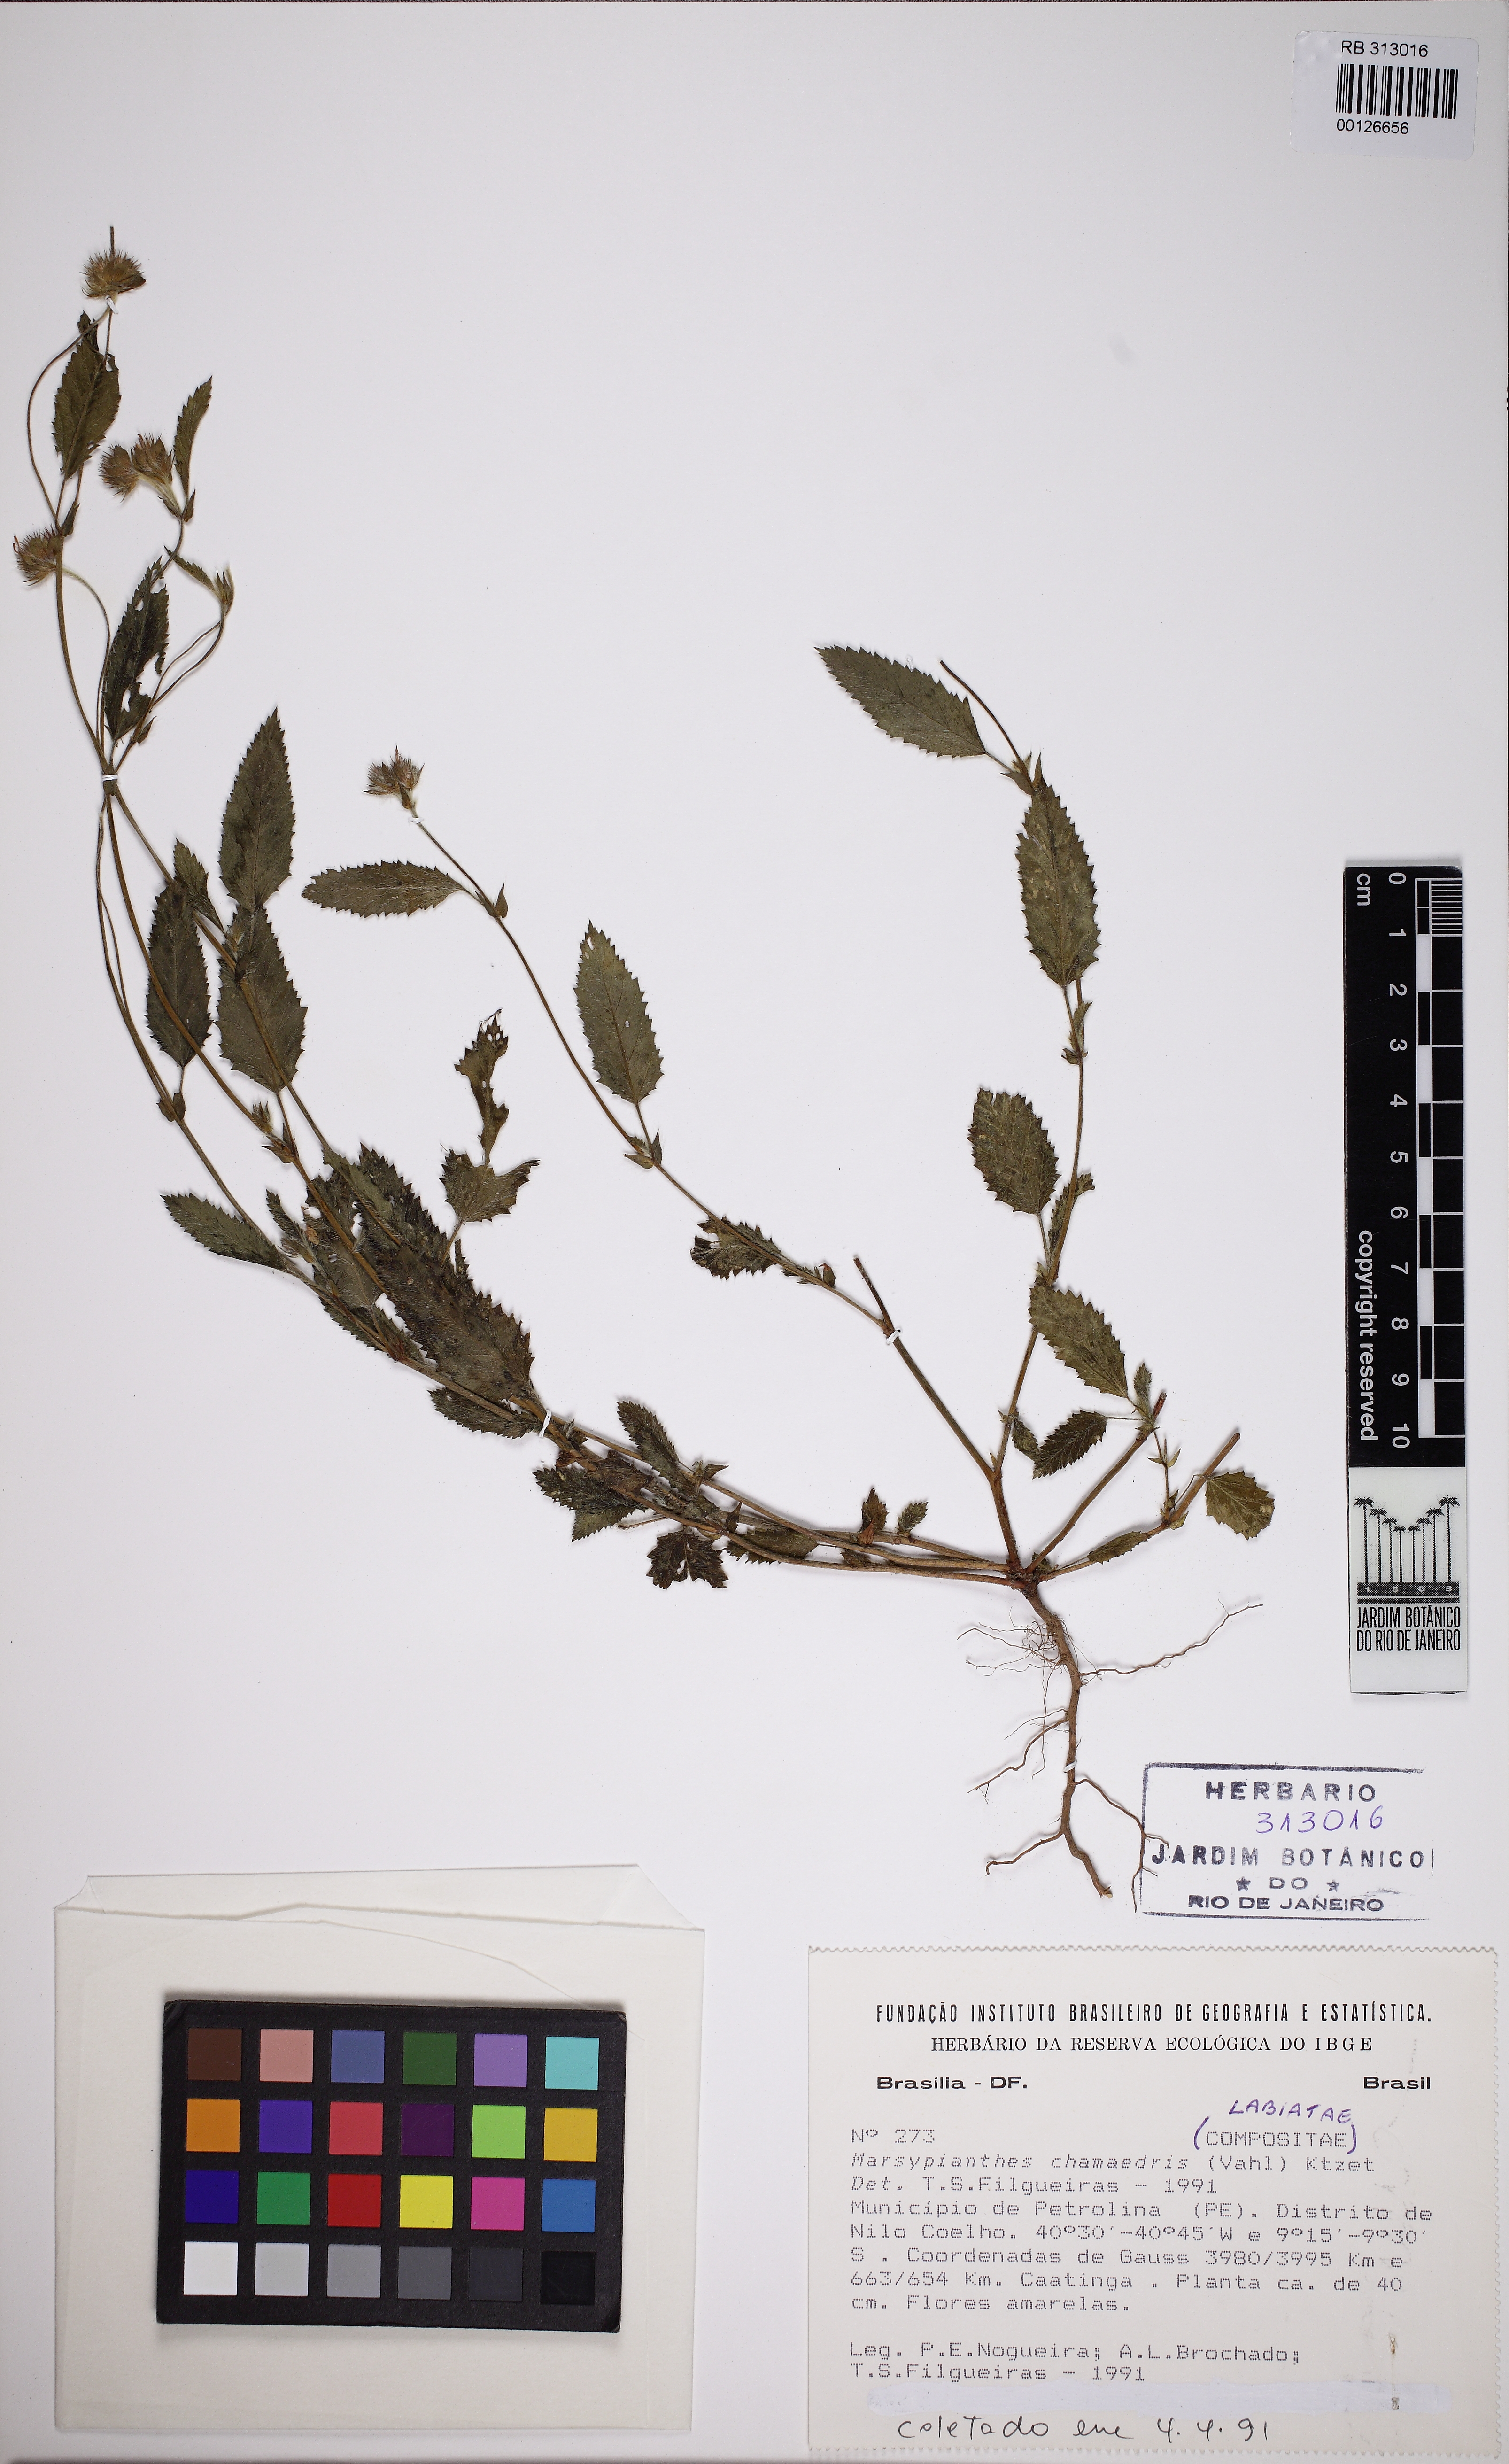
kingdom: Plantae
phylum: Tracheophyta
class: Magnoliopsida
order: Lamiales
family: Lamiaceae
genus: Marsypianthes
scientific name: Marsypianthes chamaedrys
